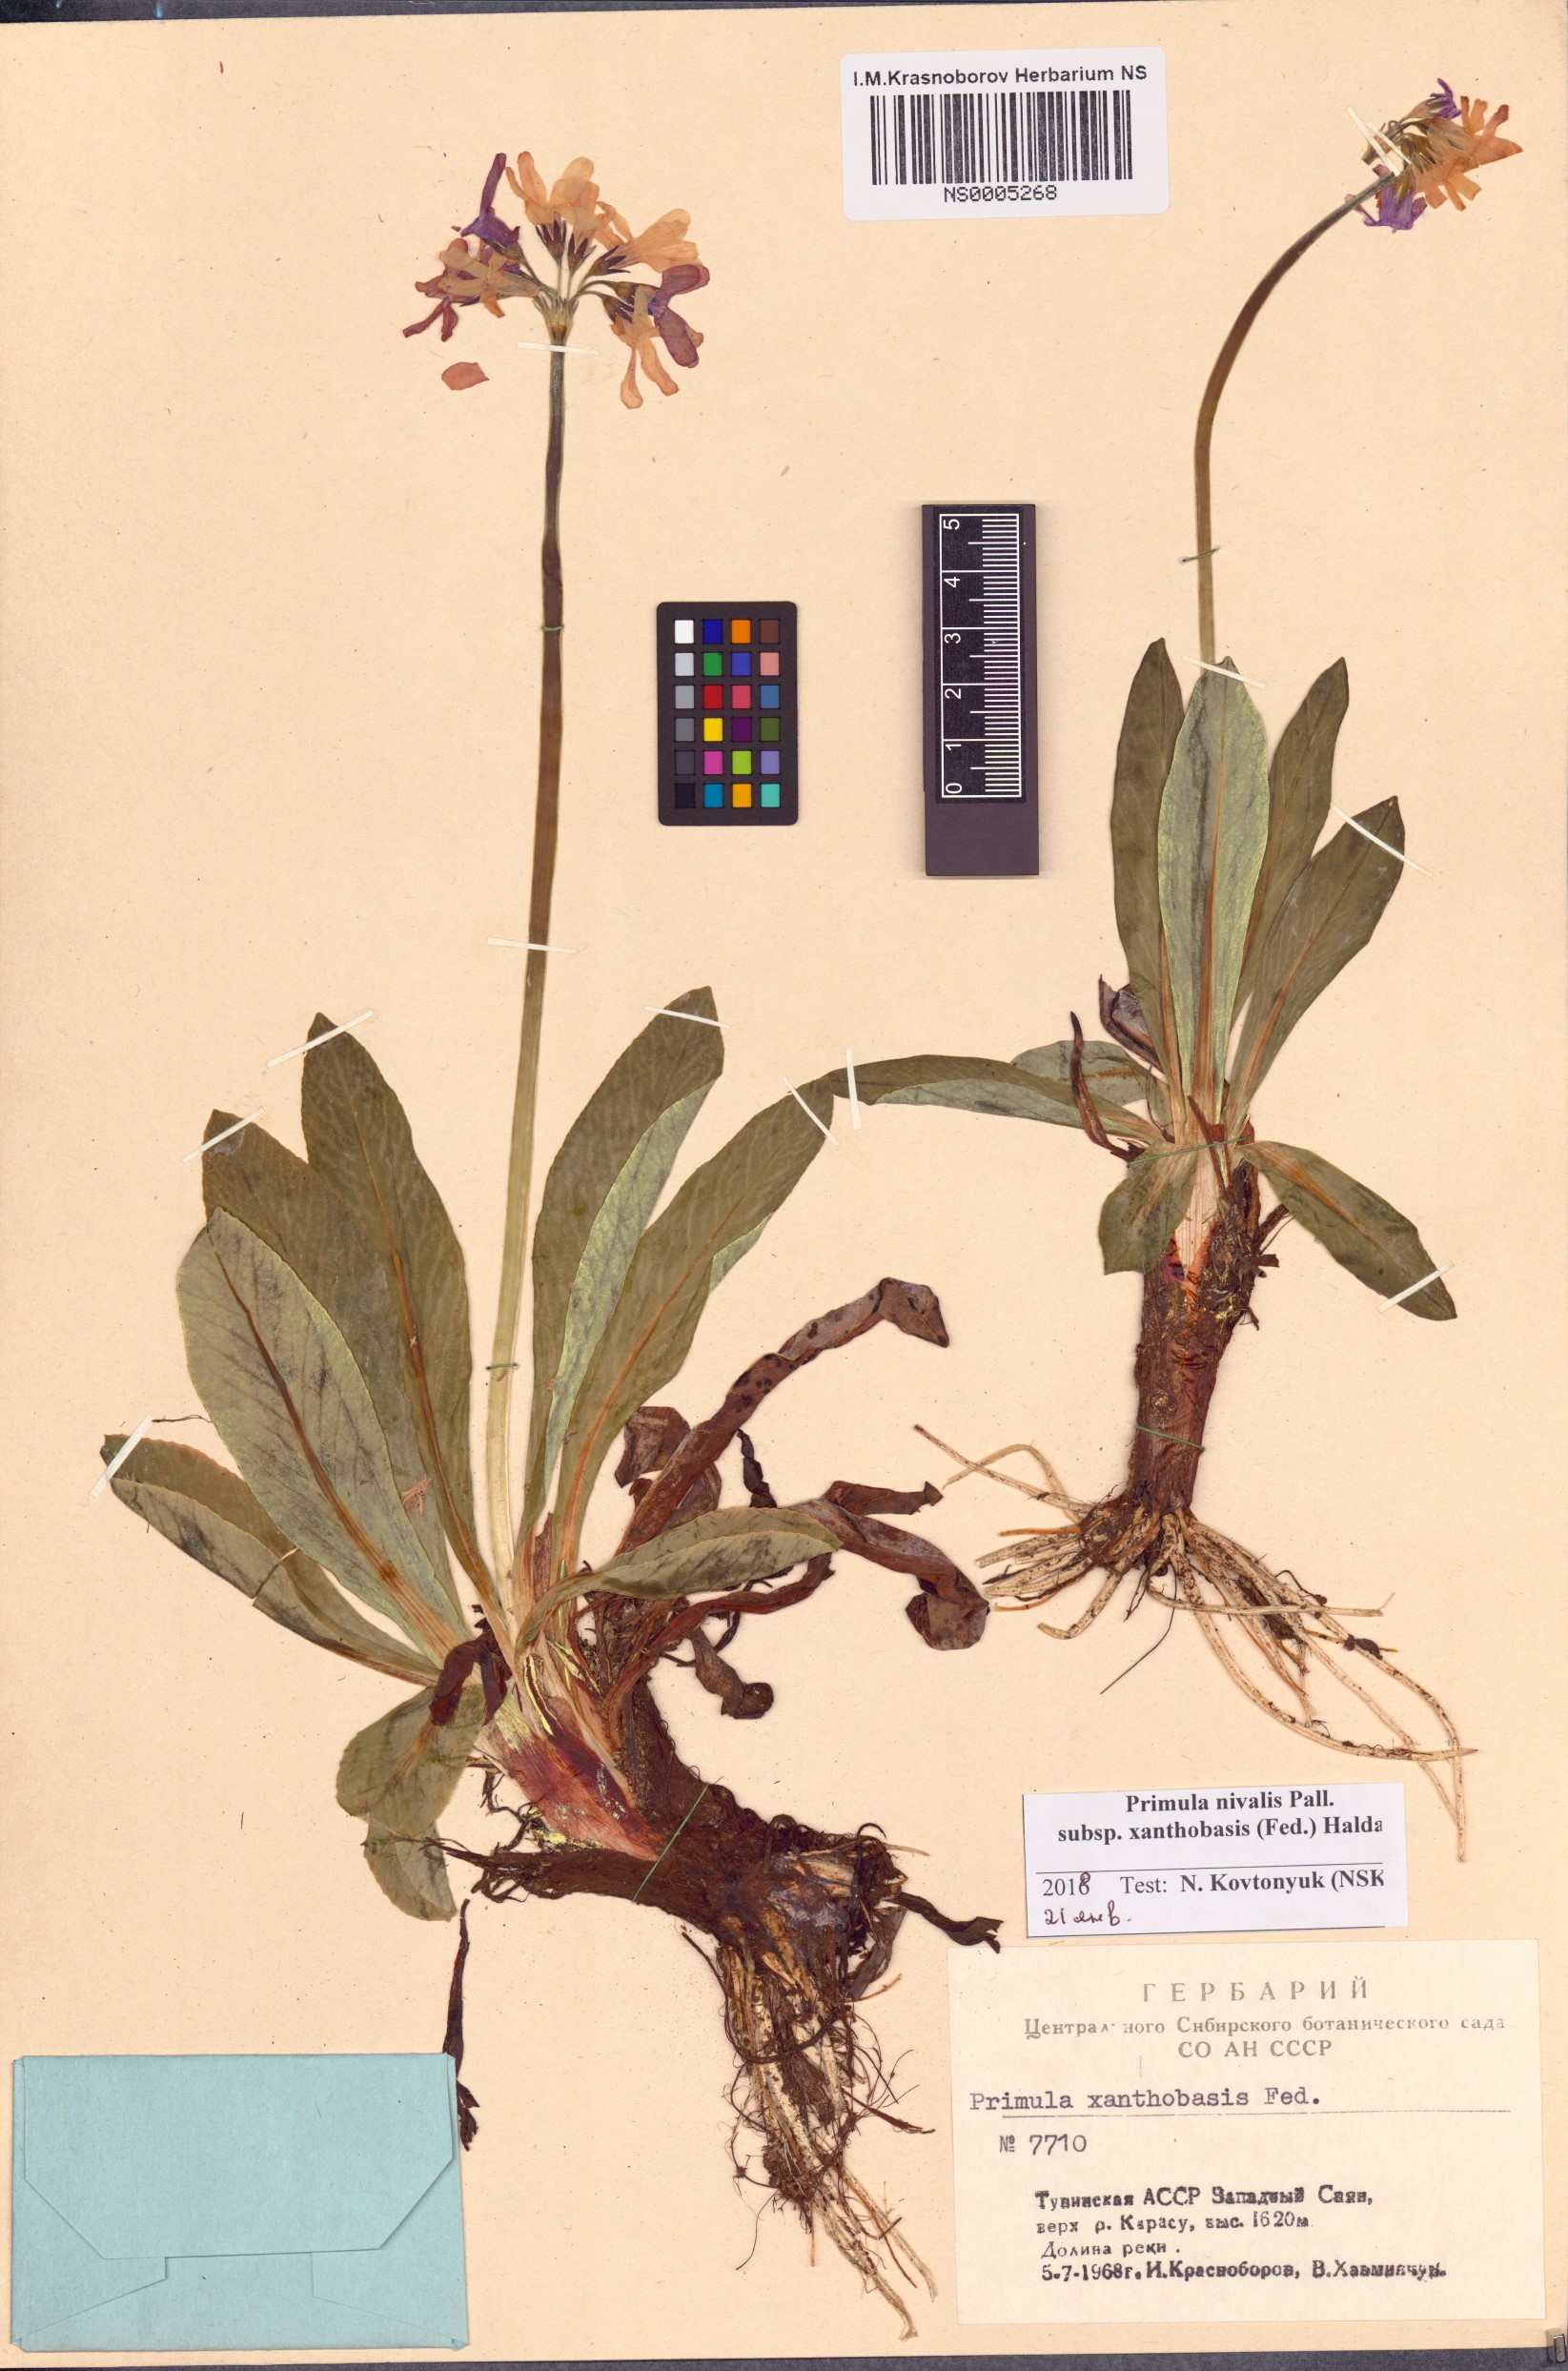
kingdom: Plantae
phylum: Tracheophyta
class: Magnoliopsida
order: Ericales
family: Primulaceae
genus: Primula
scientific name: Primula nivalis
